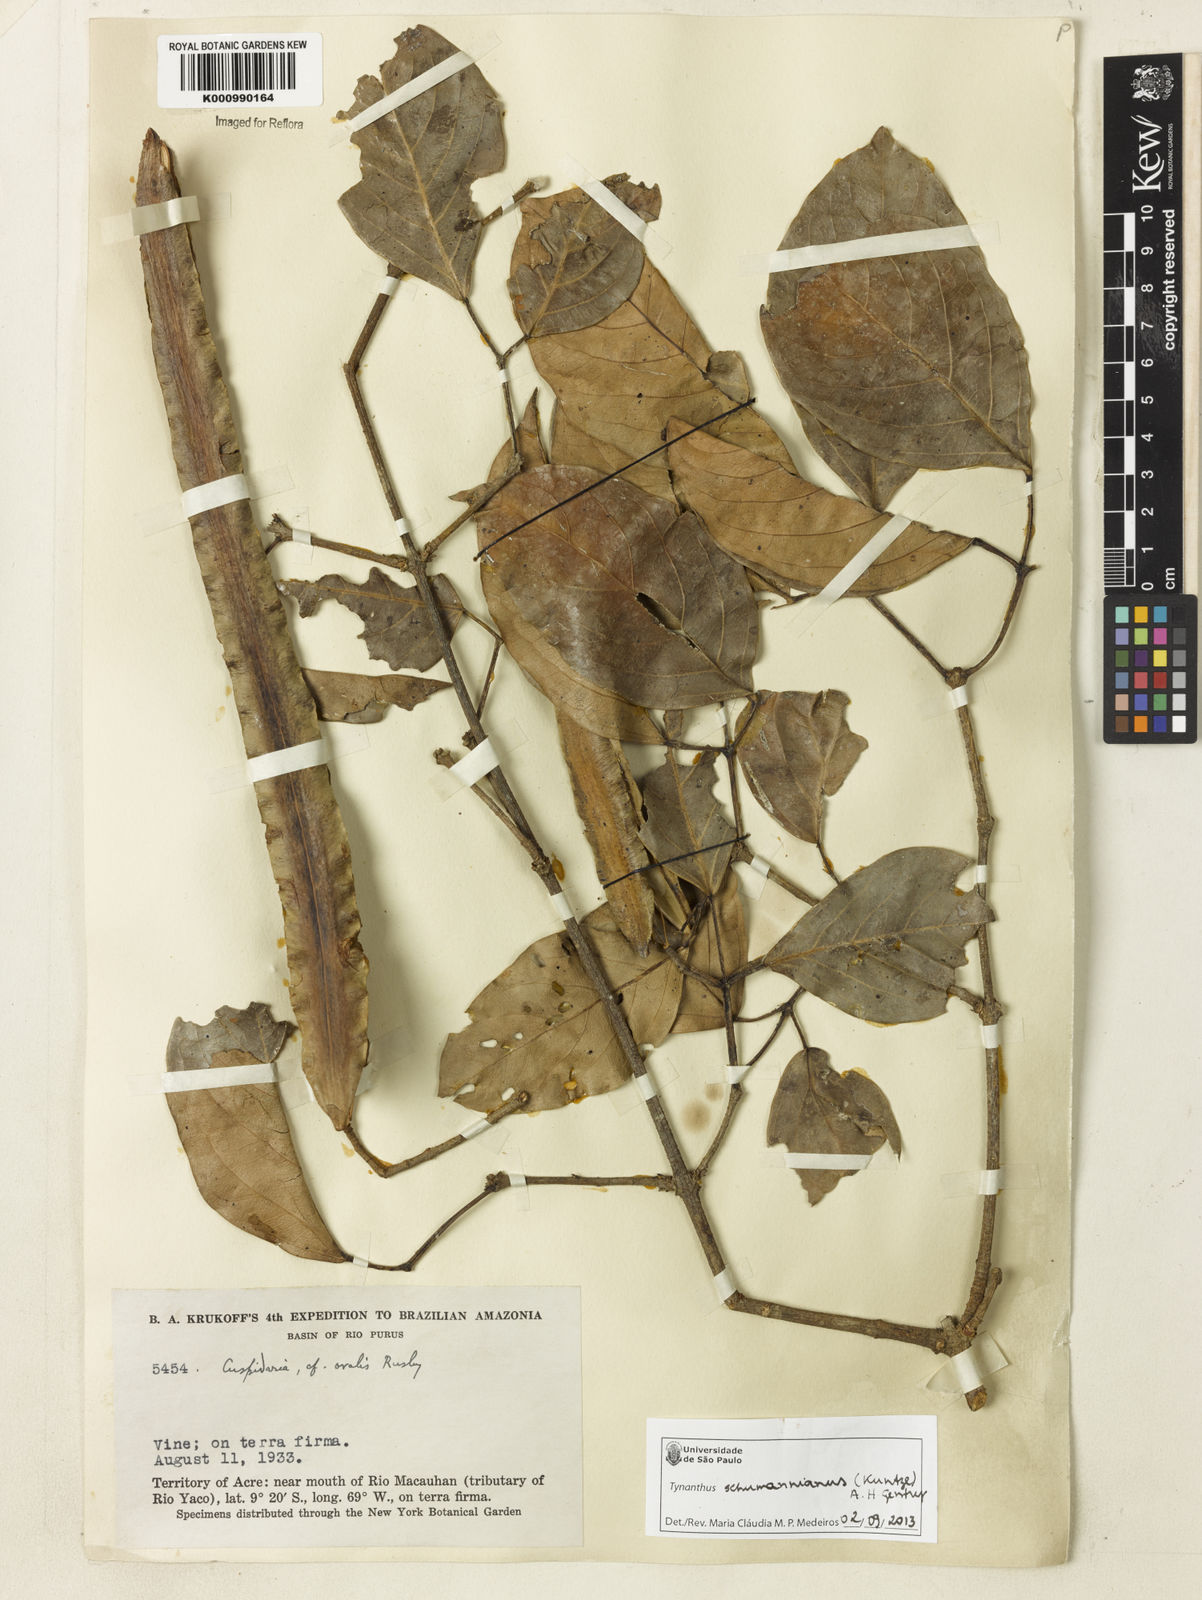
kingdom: Plantae
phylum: Tracheophyta
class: Magnoliopsida
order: Lamiales
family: Bignoniaceae
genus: Tynanthus
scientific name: Tynanthus schumannianus
